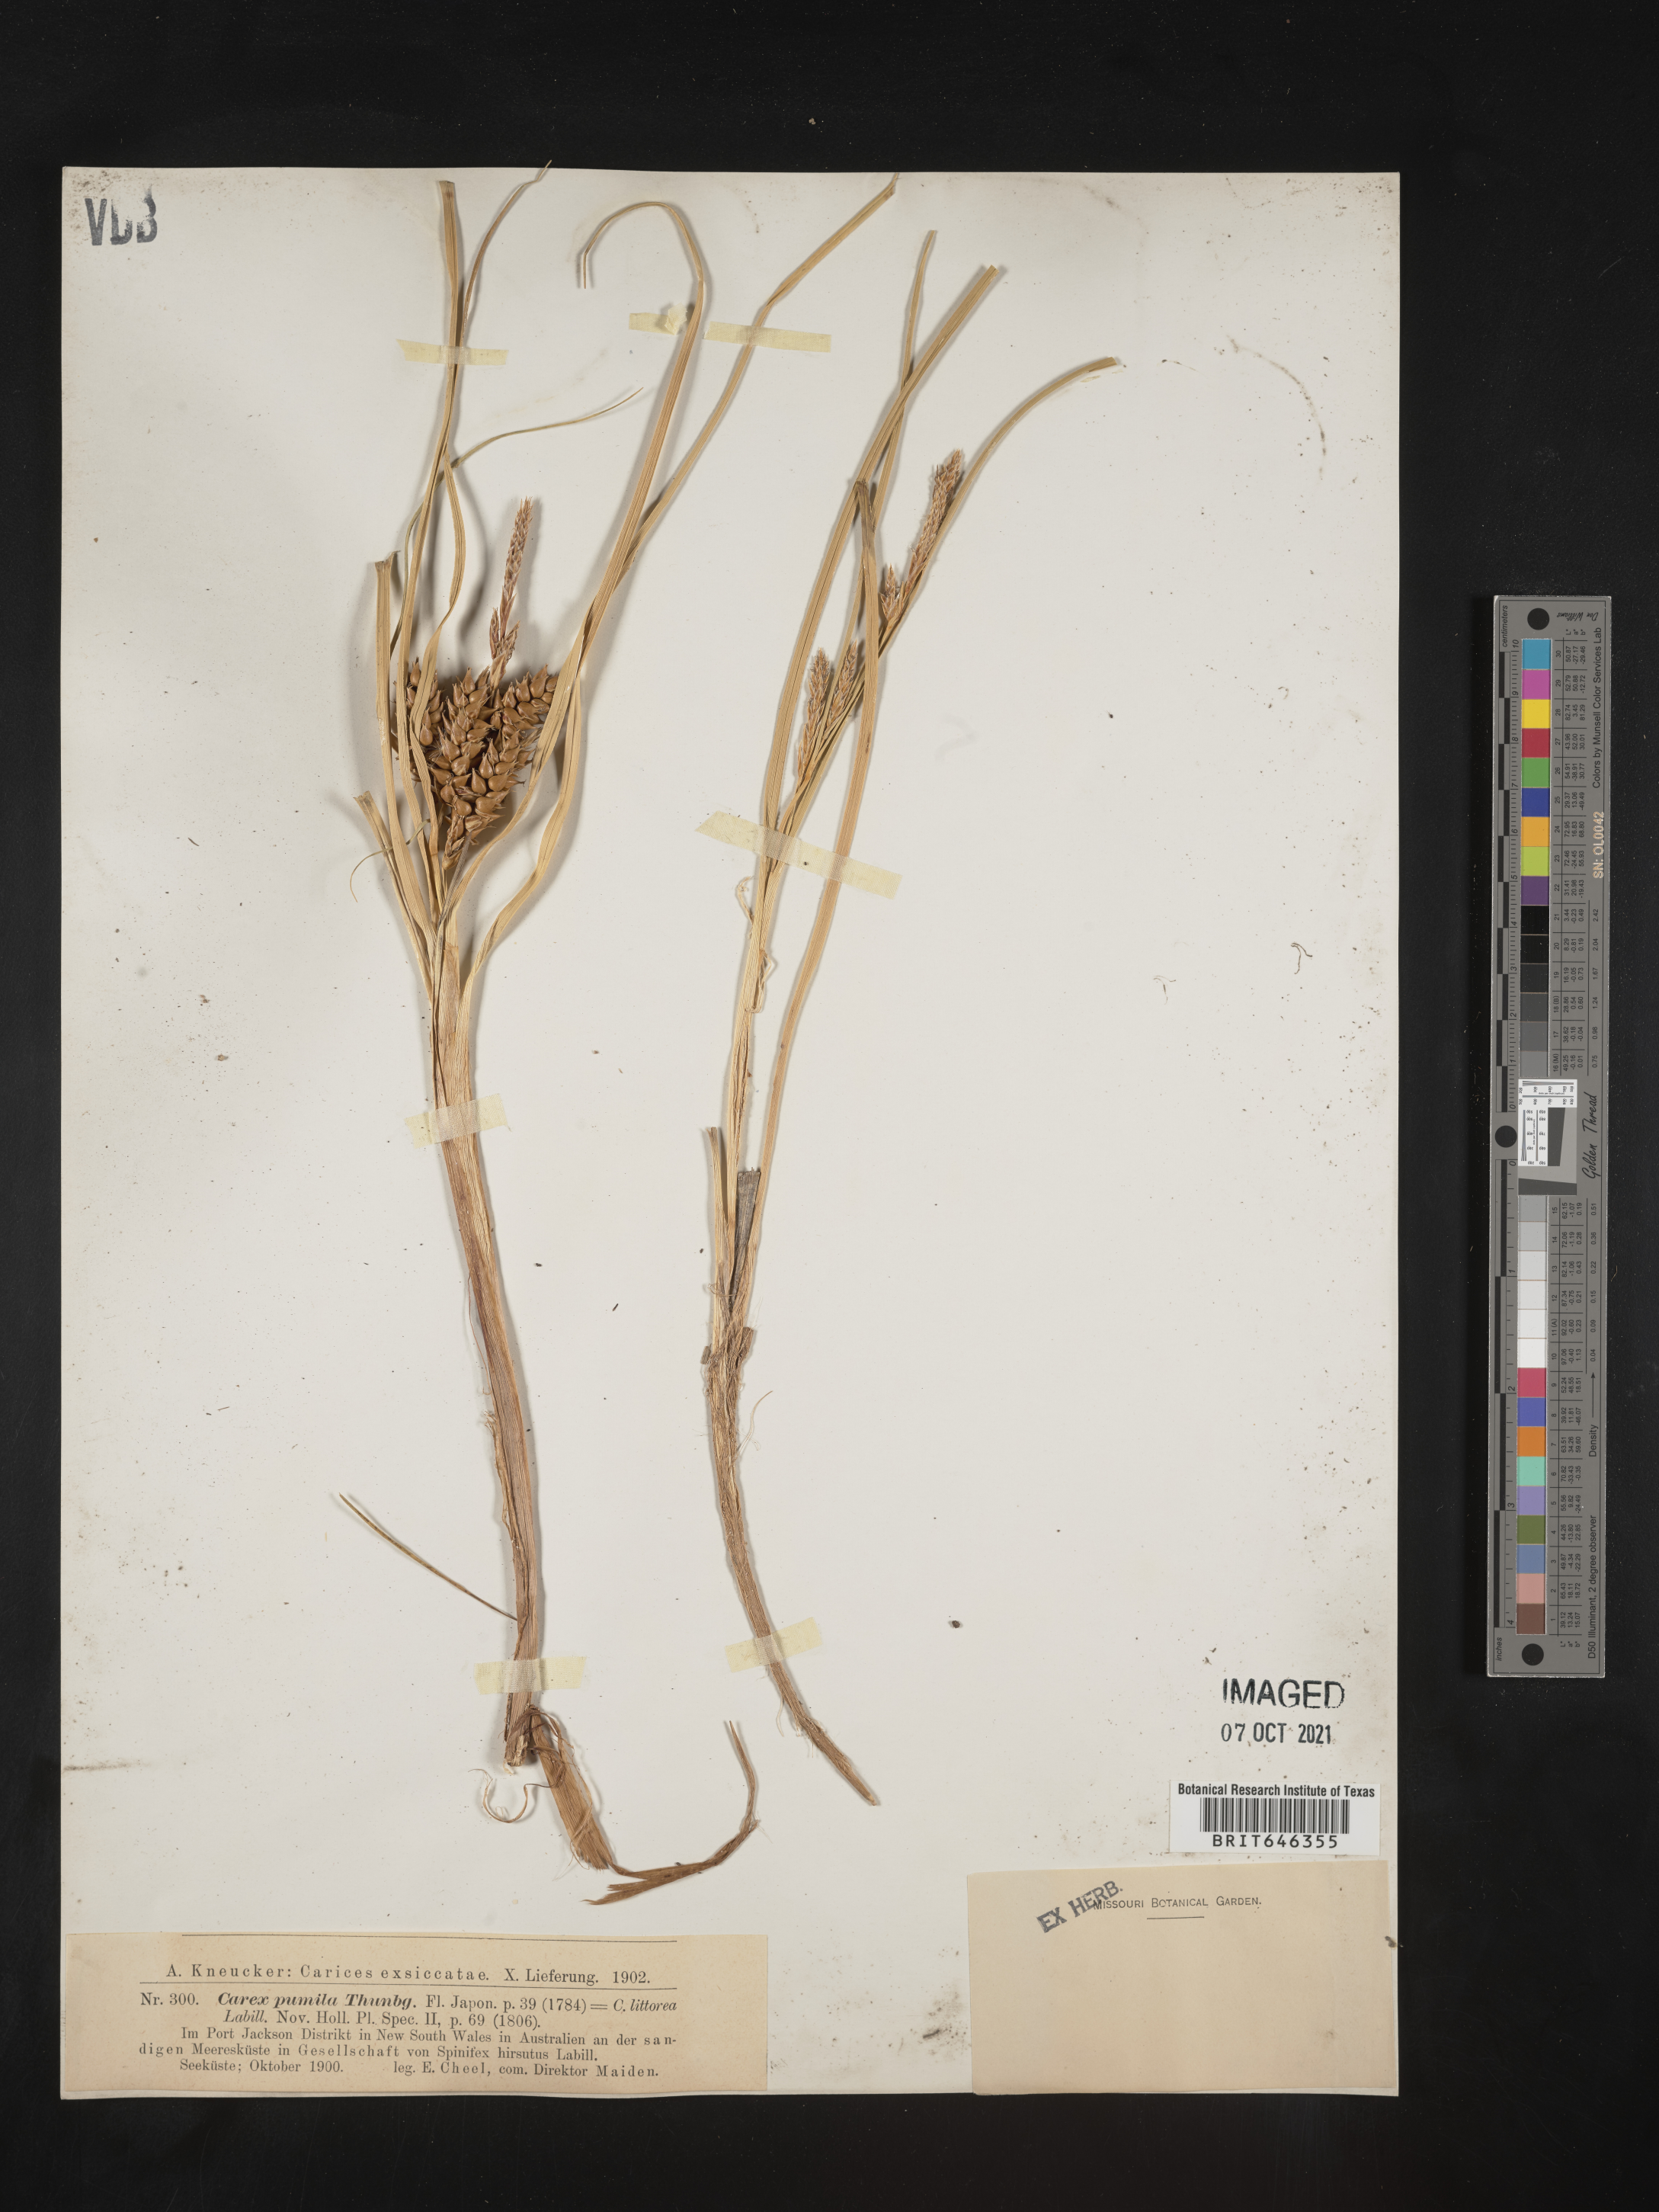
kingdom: Plantae
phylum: Tracheophyta
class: Liliopsida
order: Poales
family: Cyperaceae
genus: Carex
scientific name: Carex pumila
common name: Dwarf sedge
